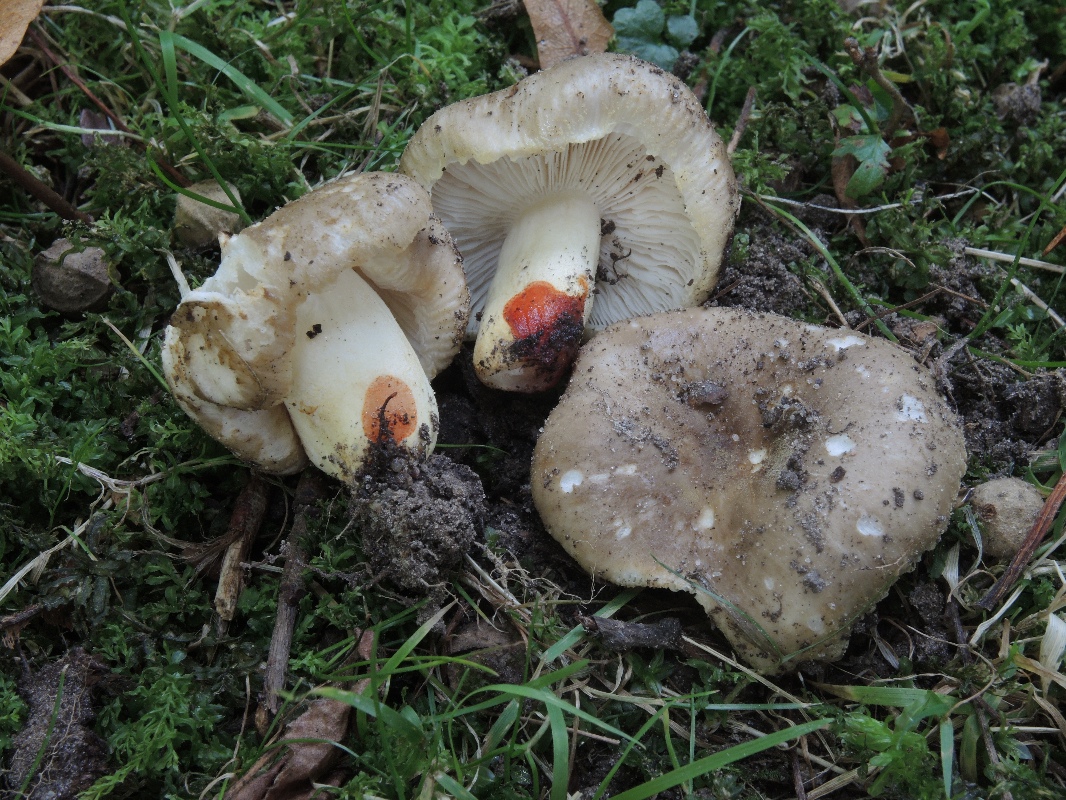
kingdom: Fungi
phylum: Basidiomycota
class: Agaricomycetes
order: Russulales
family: Russulaceae
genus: Russula
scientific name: Russula insignis
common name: gulfodet kam-skørhat
